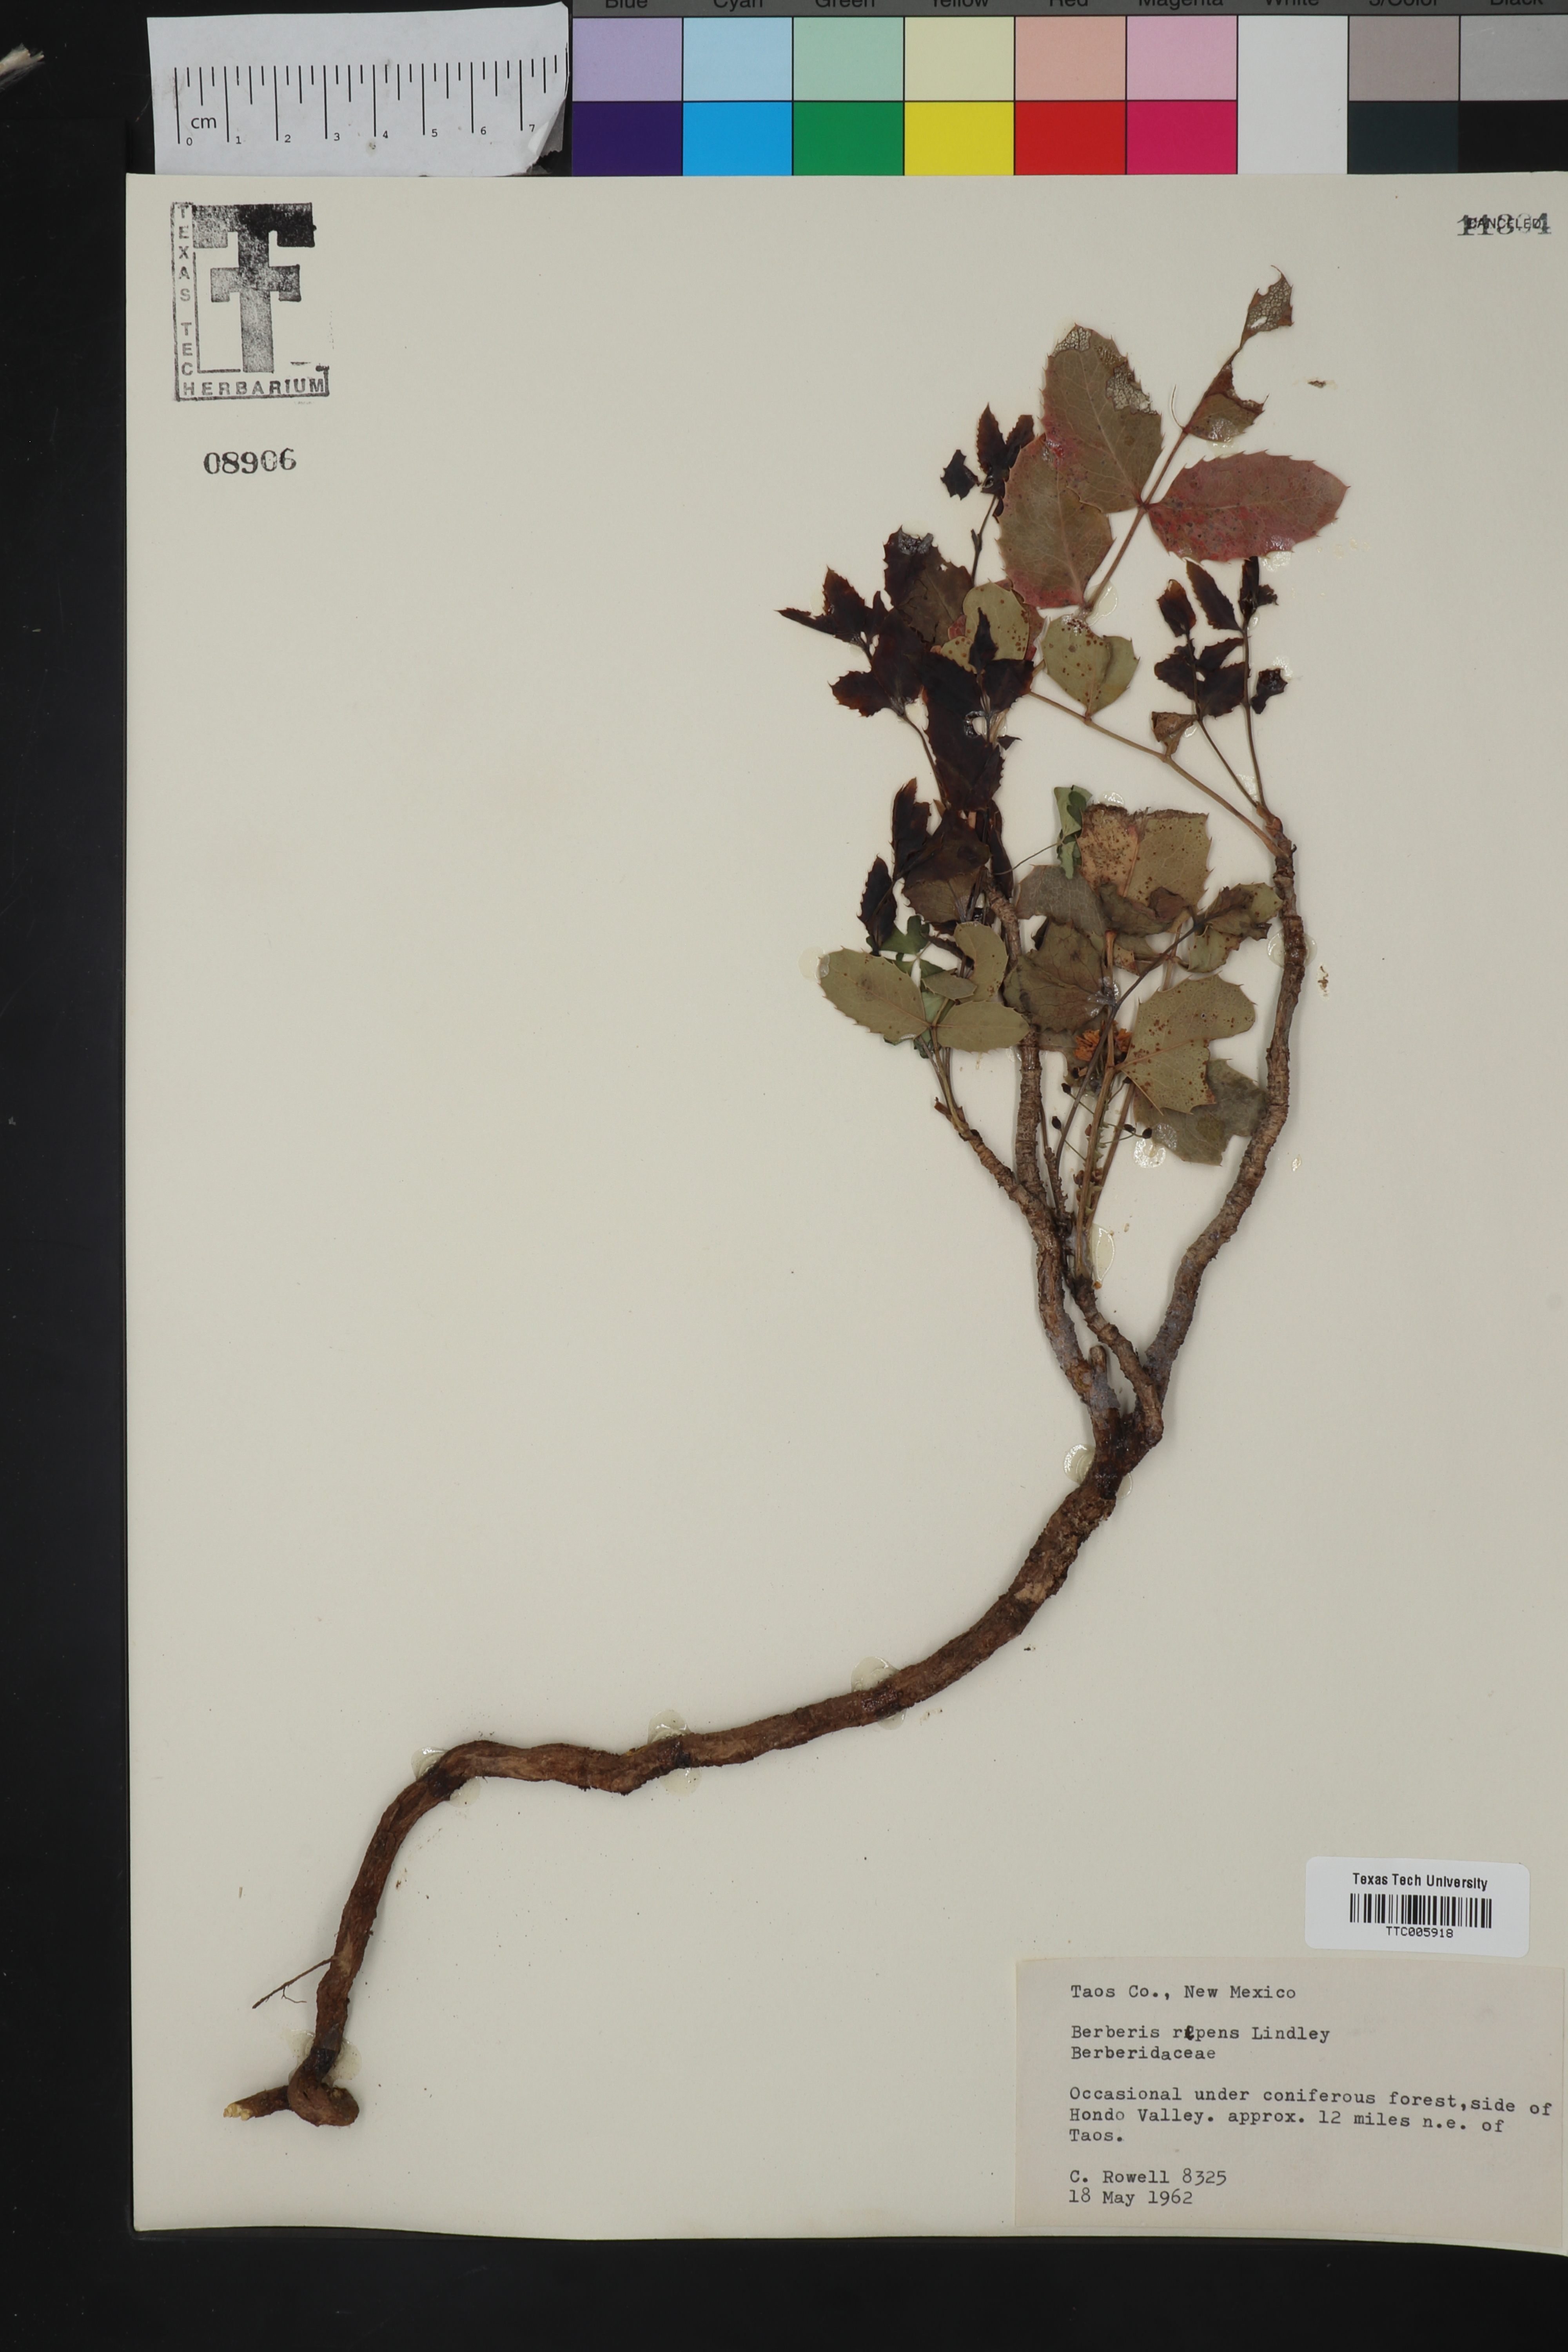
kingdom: Plantae
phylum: Tracheophyta
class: Magnoliopsida
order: Ranunculales
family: Berberidaceae
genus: Mahonia
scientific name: Mahonia repens
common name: Creeping oregon-grape
